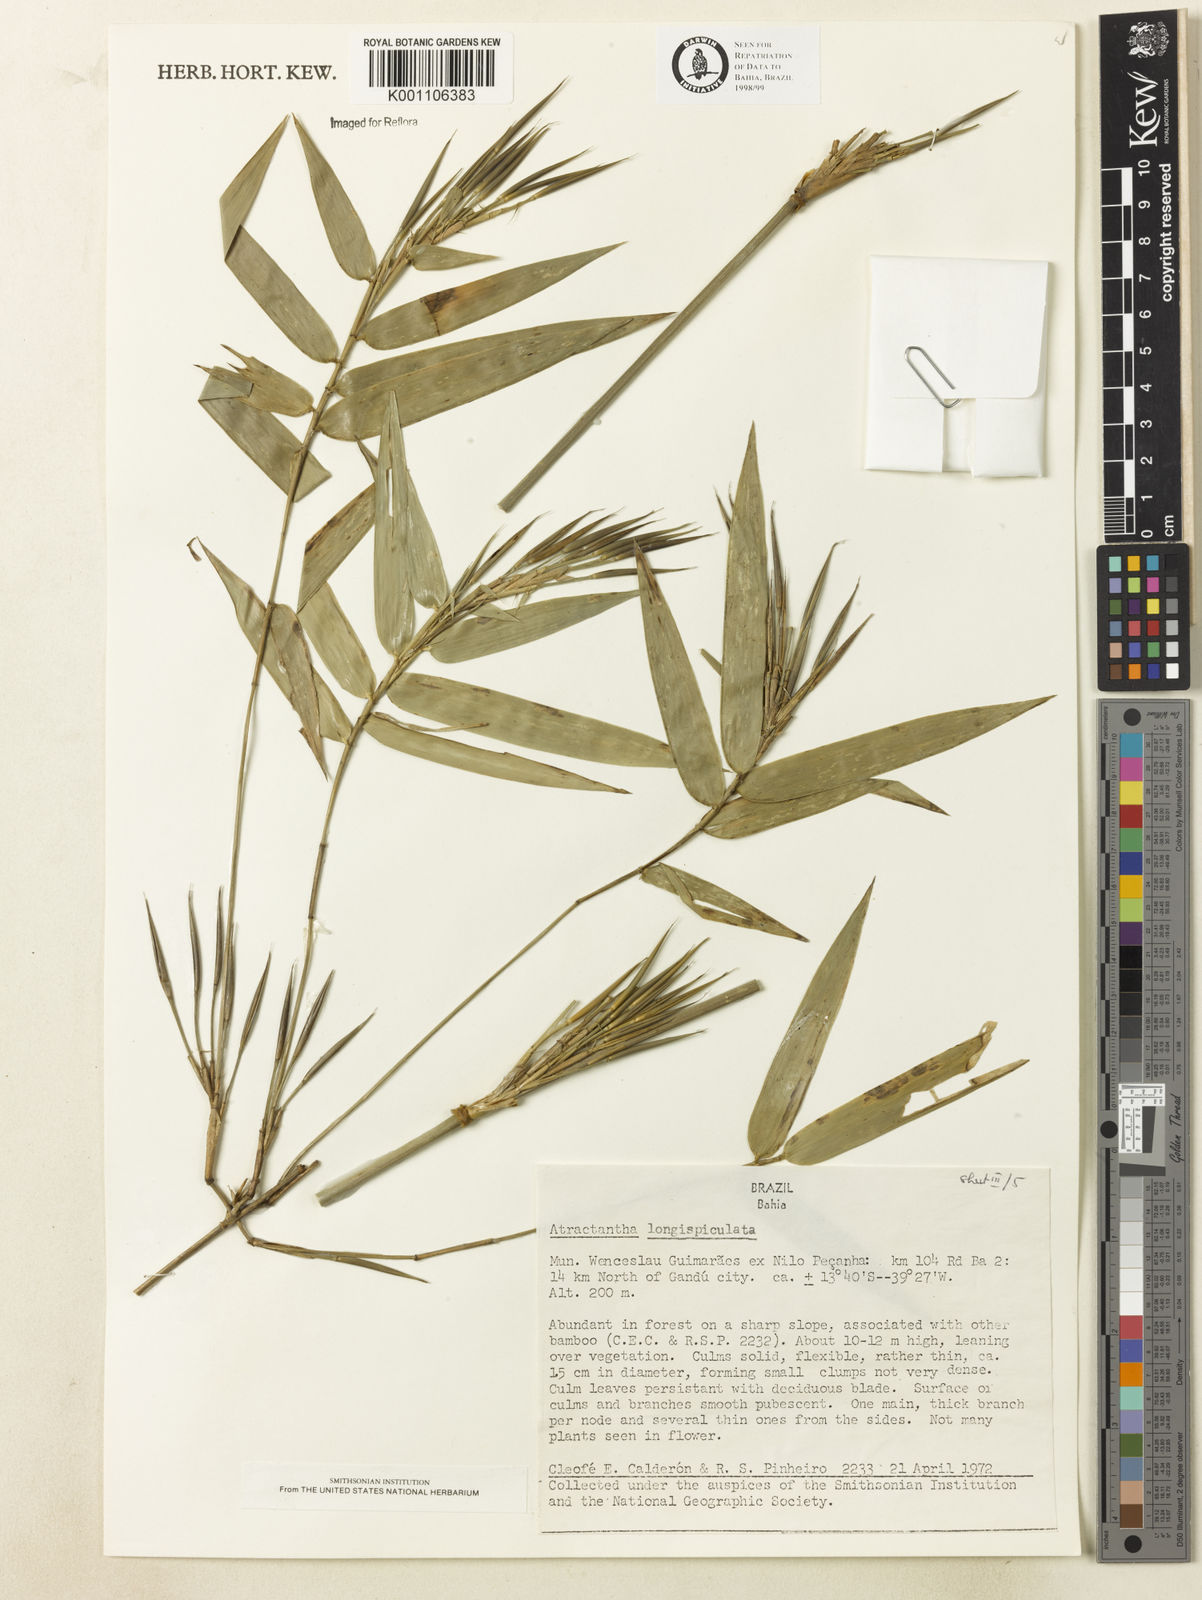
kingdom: Plantae
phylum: Tracheophyta
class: Liliopsida
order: Poales
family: Poaceae
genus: Atractantha
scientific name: Atractantha aureolanata
